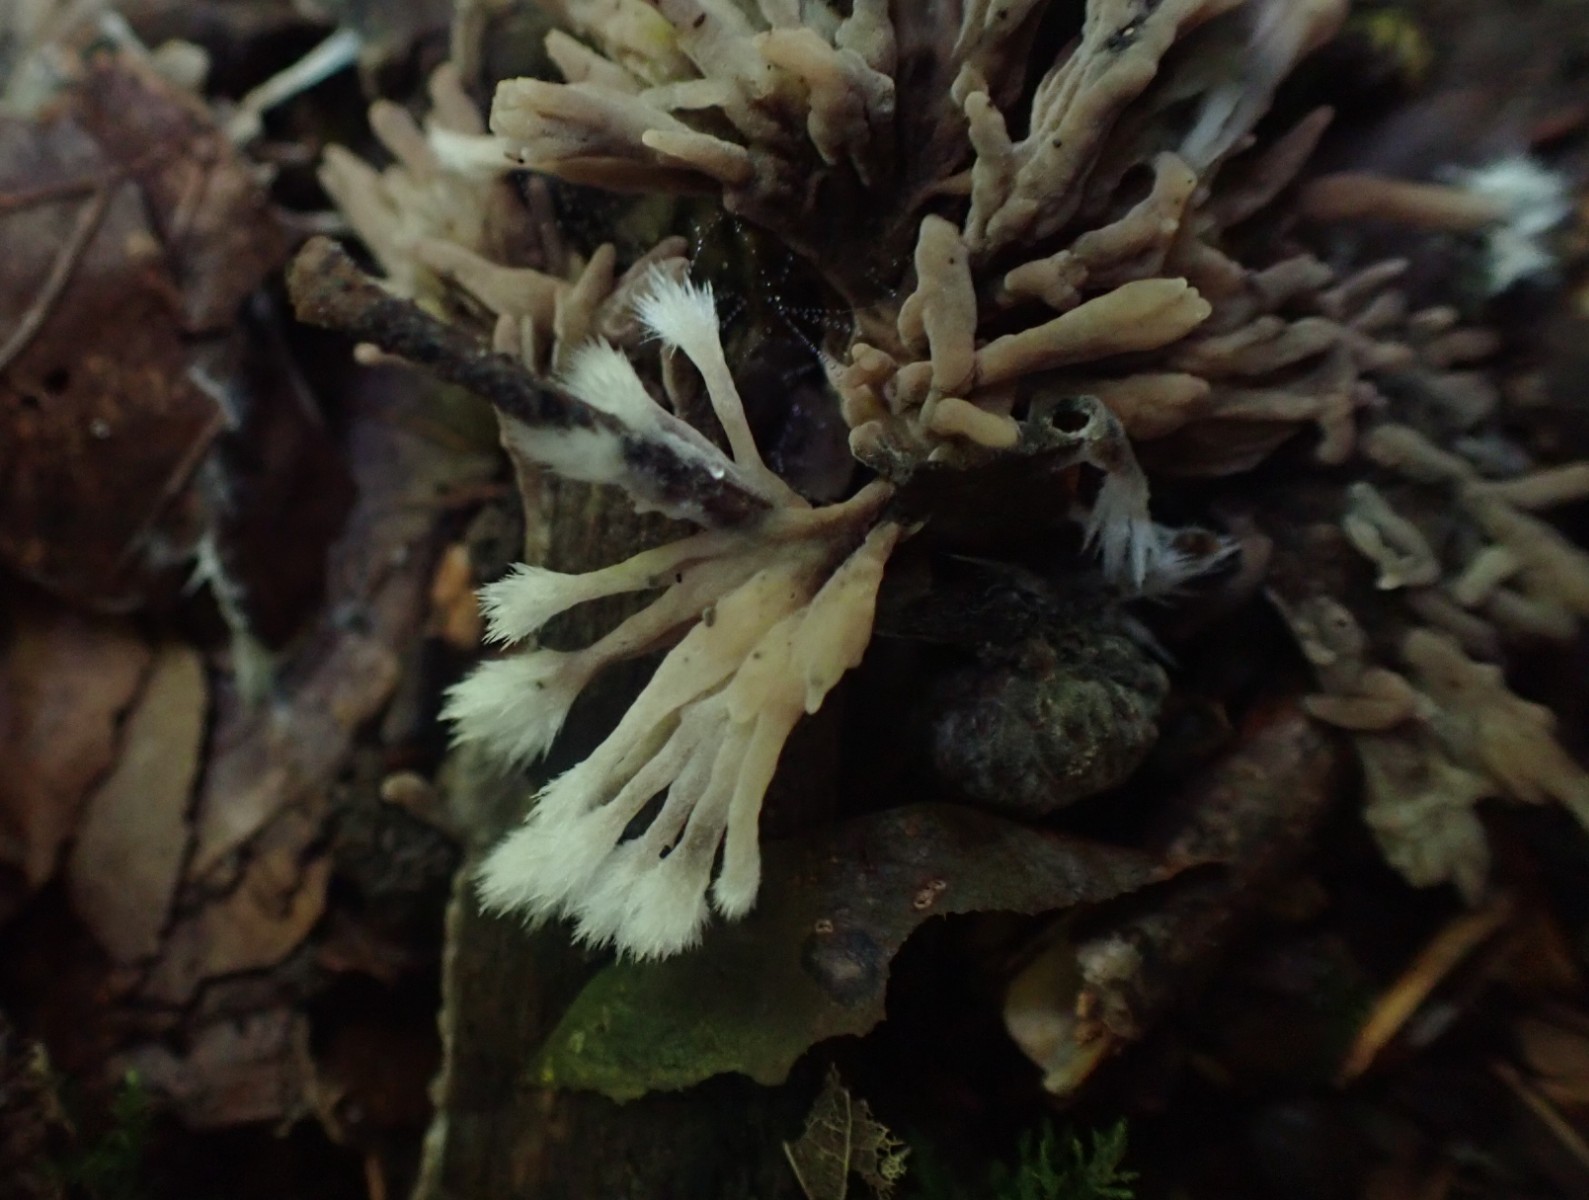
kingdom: Fungi
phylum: Basidiomycota
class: Agaricomycetes
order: Thelephorales
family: Thelephoraceae
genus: Thelephora
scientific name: Thelephora
